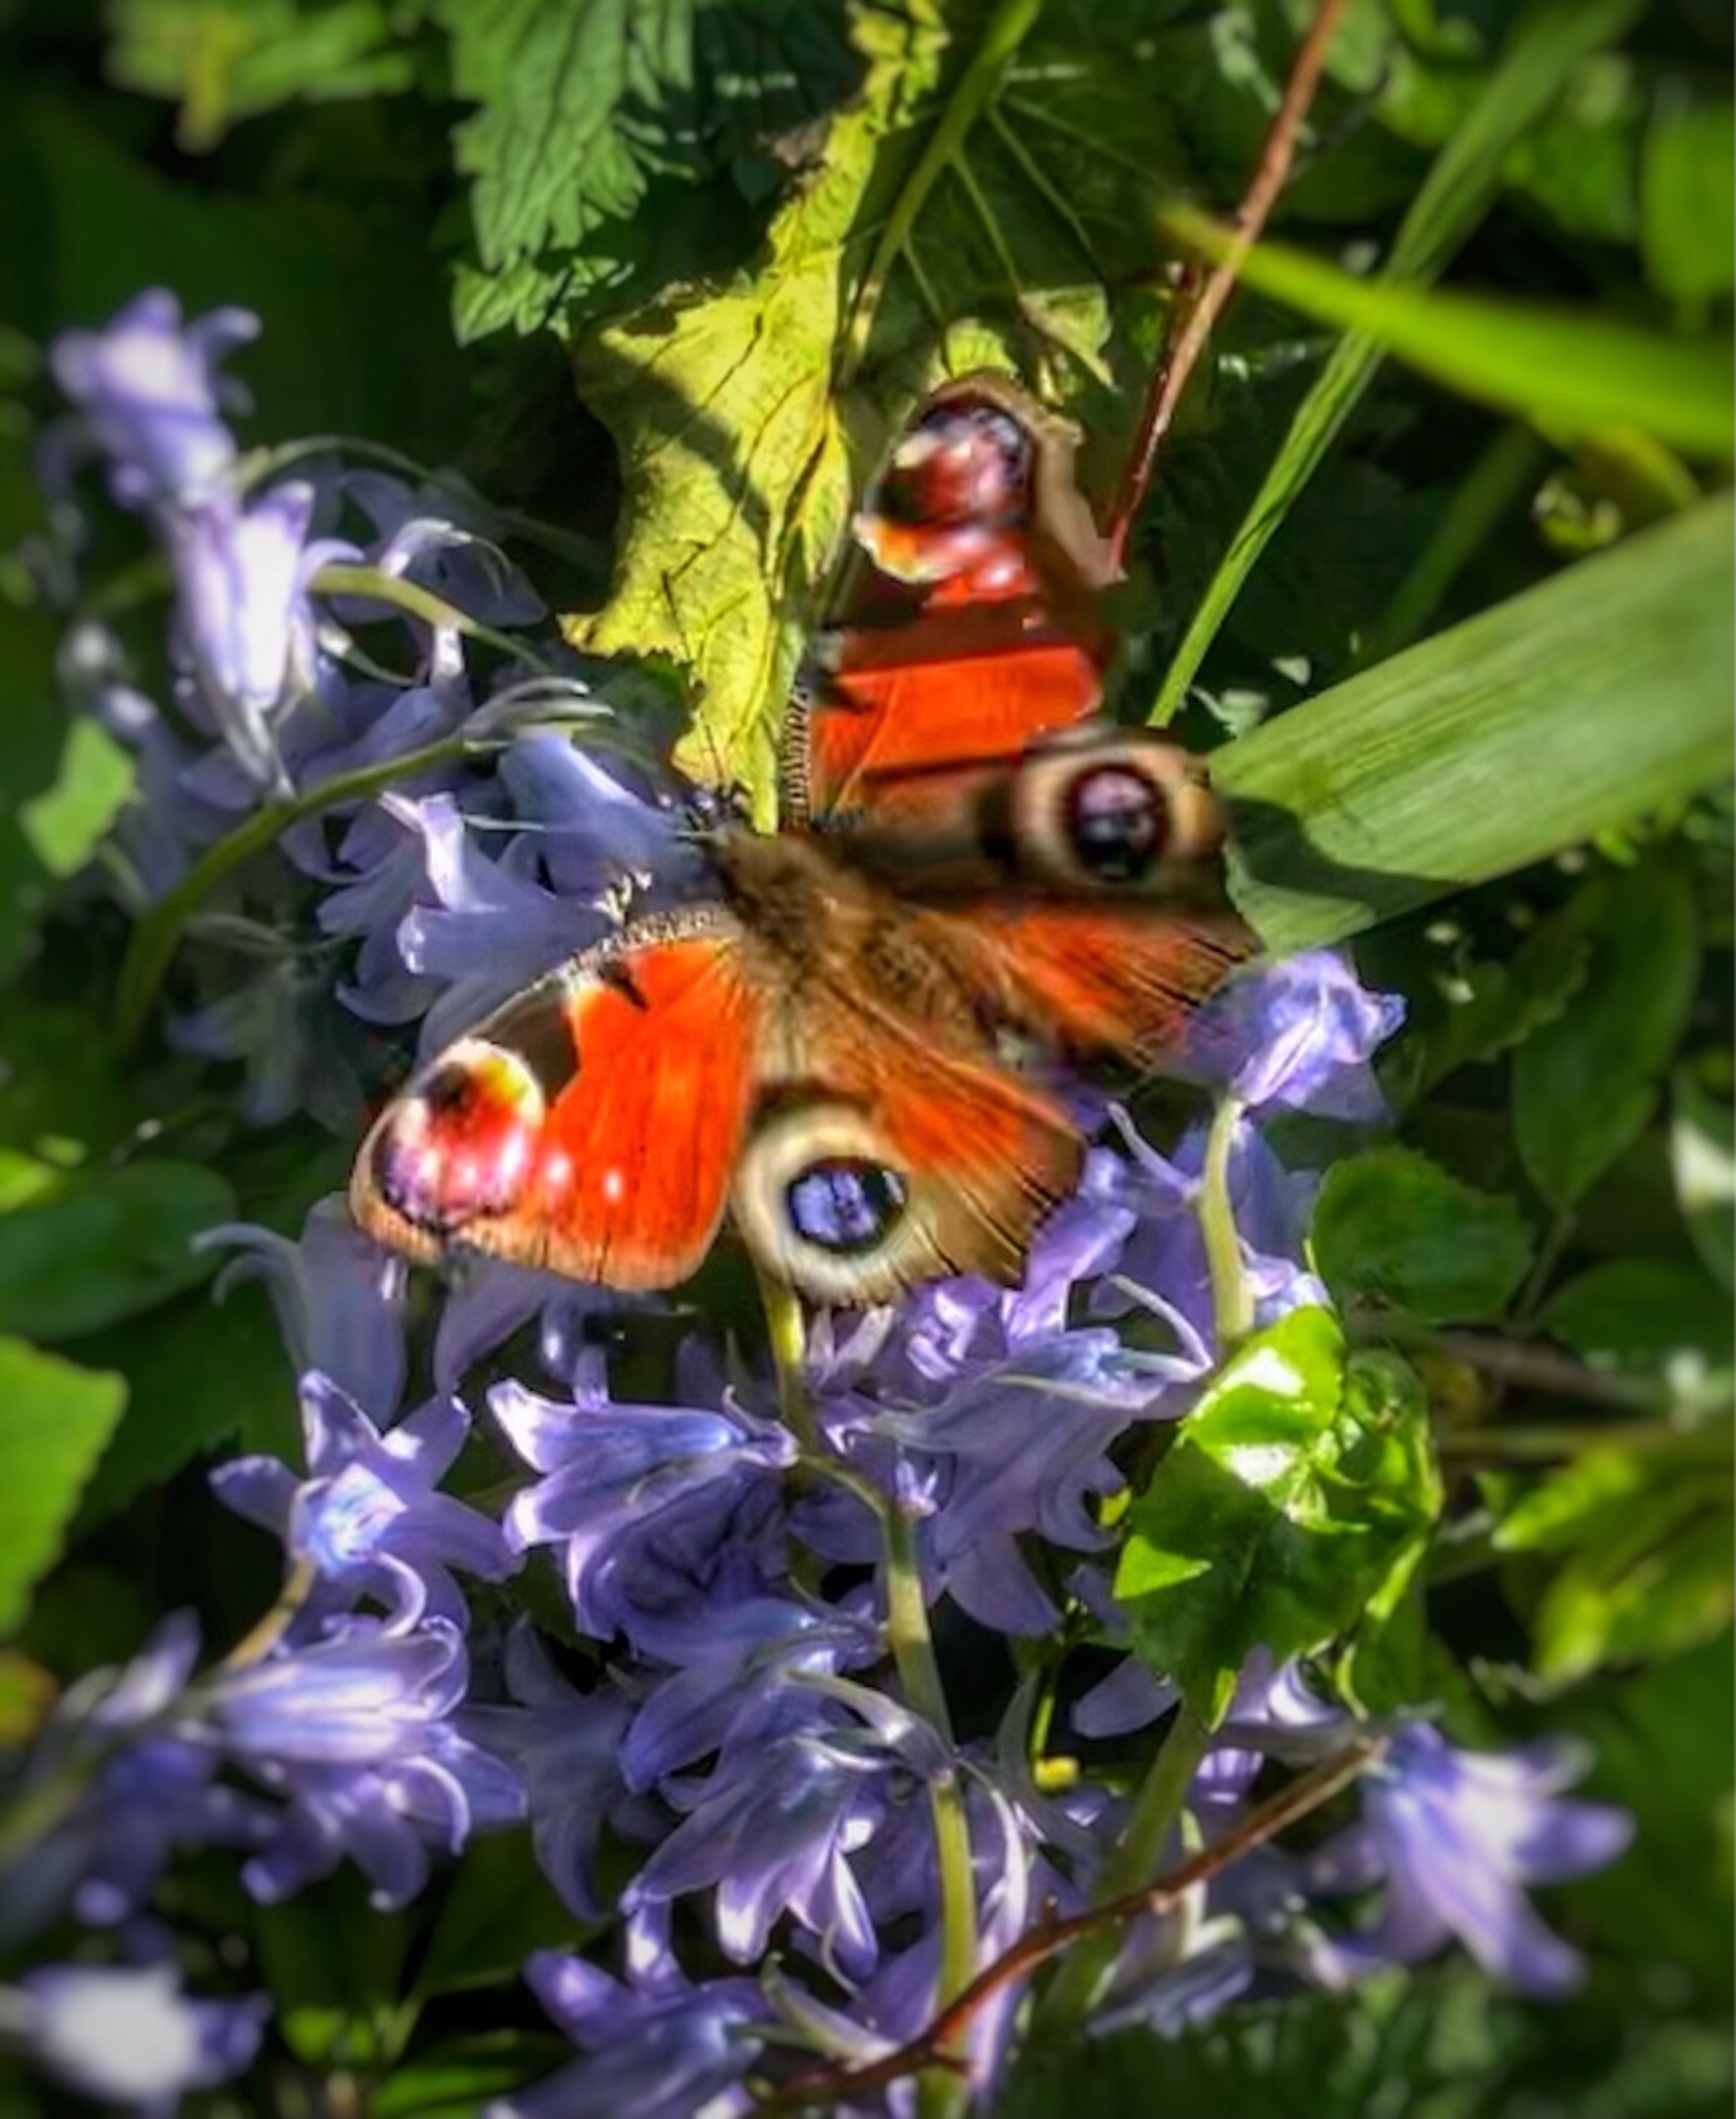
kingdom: Animalia
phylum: Arthropoda
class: Insecta
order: Lepidoptera
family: Nymphalidae
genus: Aglais
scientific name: Aglais io
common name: Dagpåfugleøje
